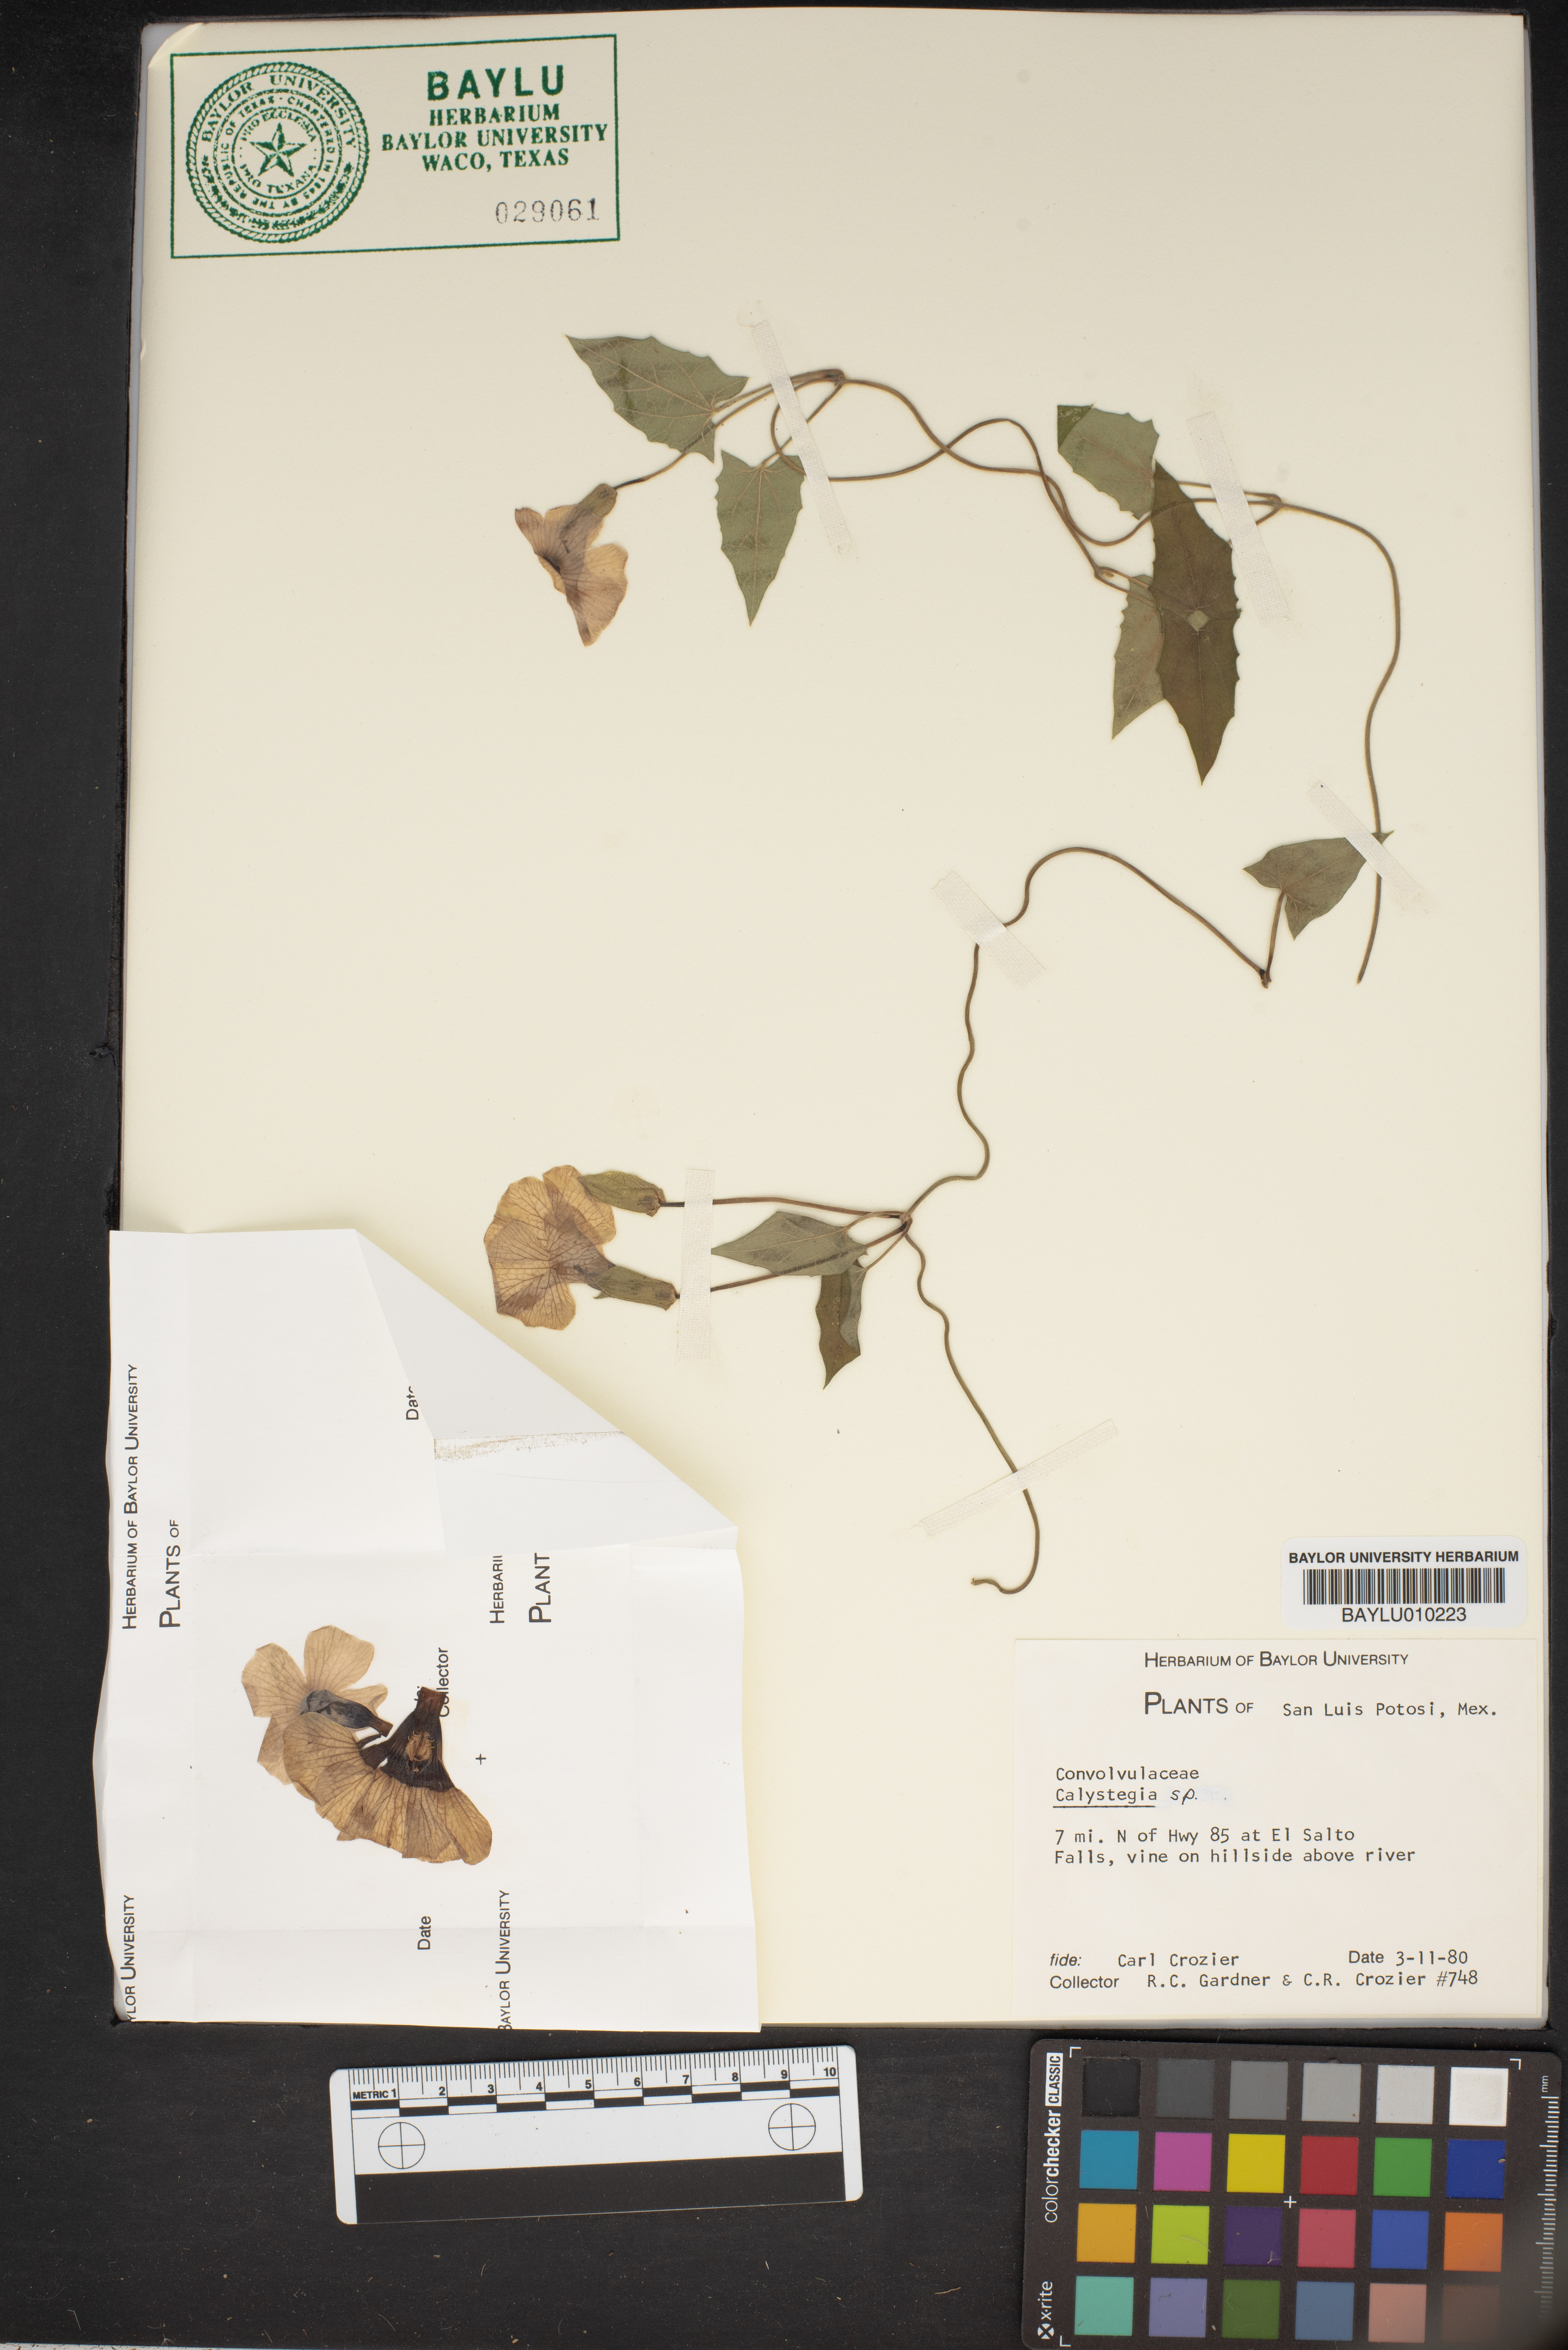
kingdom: Plantae
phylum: Tracheophyta
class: Magnoliopsida
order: Solanales
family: Convolvulaceae
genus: Calystegia
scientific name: Calystegia
